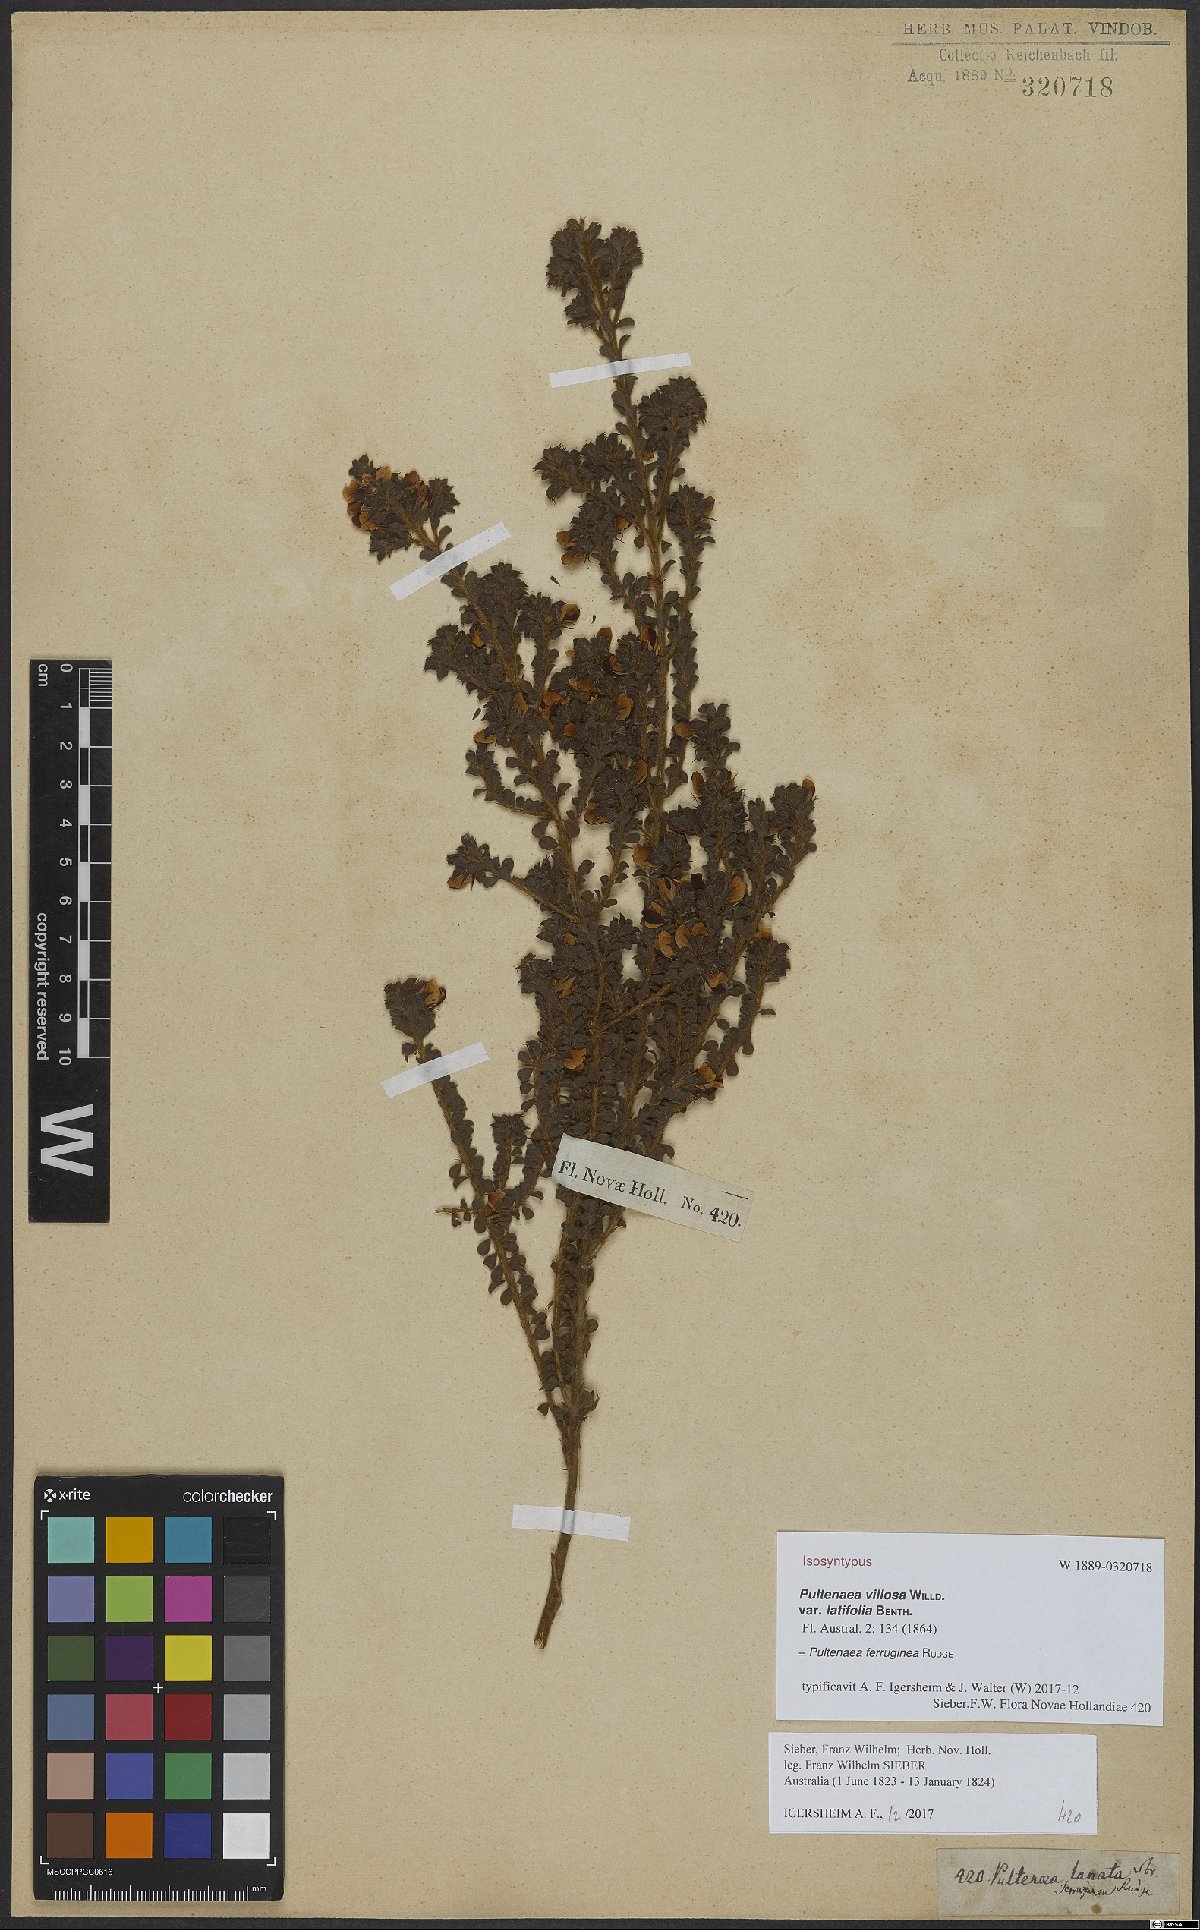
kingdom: Plantae
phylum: Tracheophyta
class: Magnoliopsida
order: Fabales
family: Fabaceae
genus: Pultenaea
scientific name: Pultenaea ferruginea
